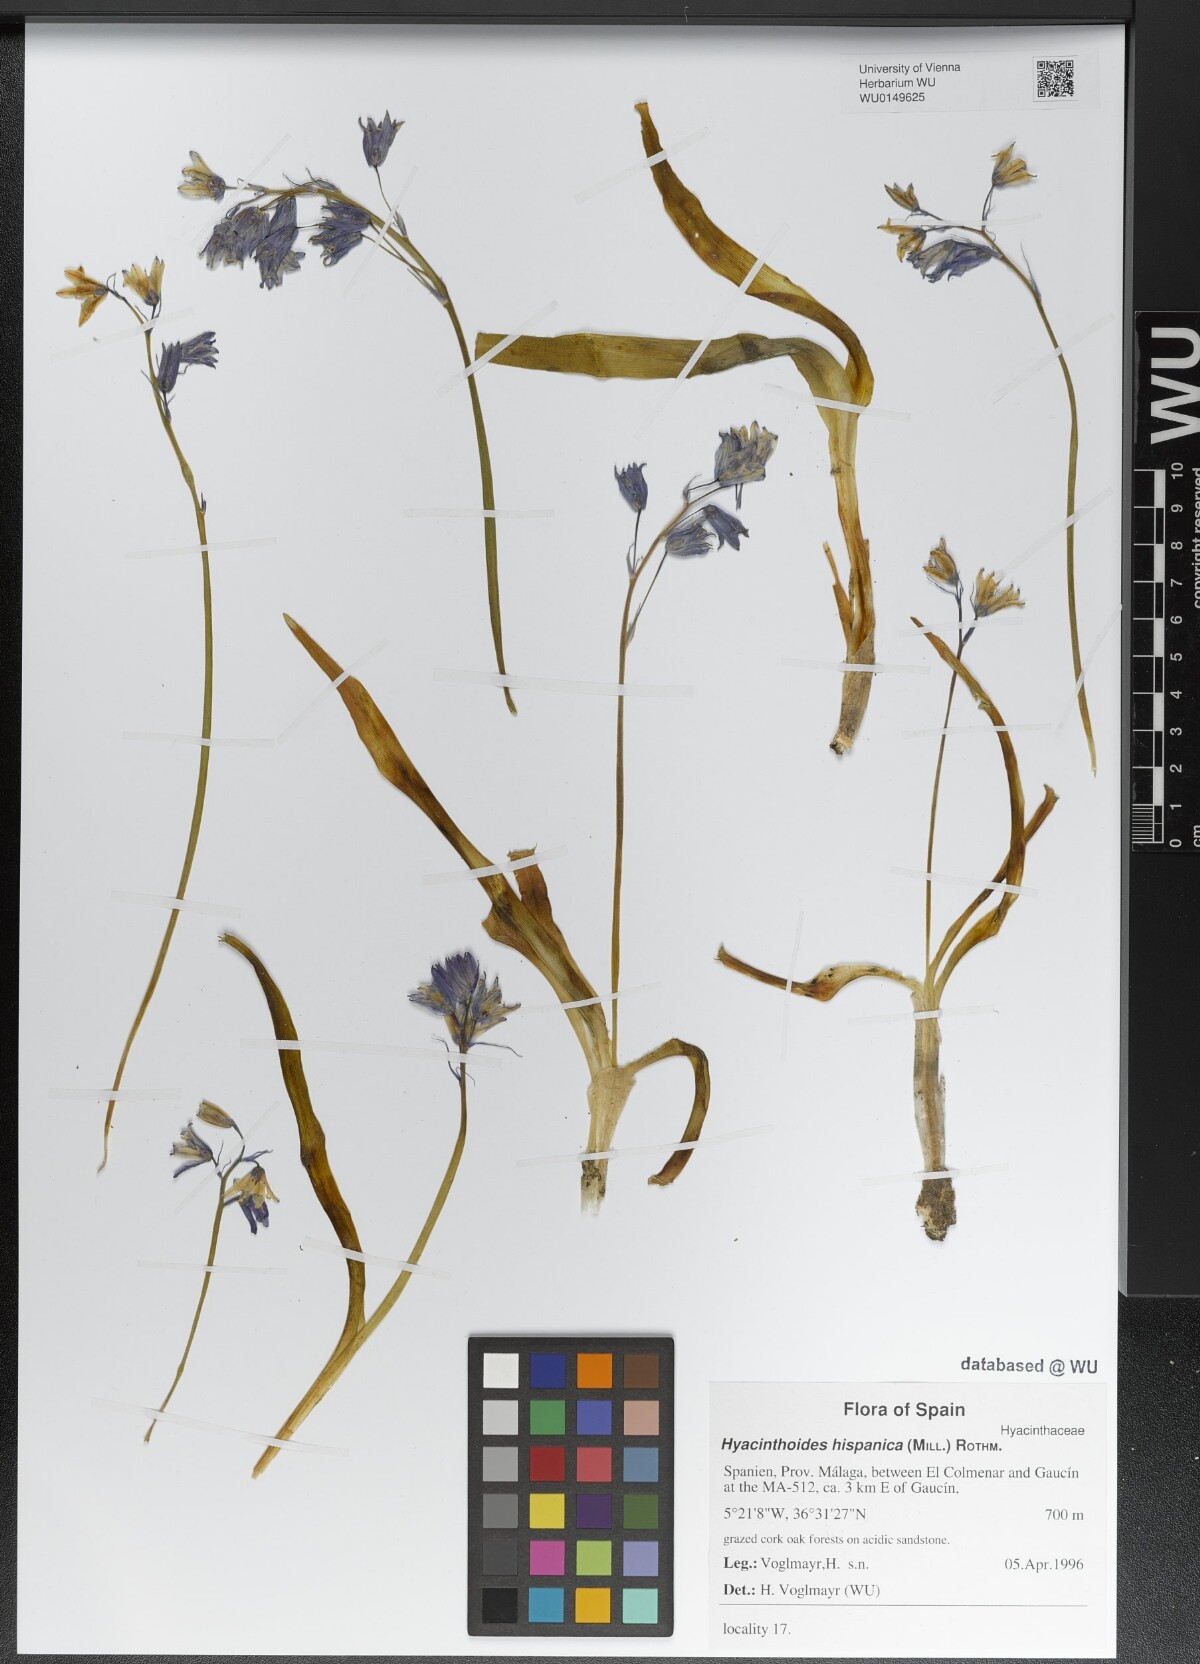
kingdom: Plantae
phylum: Tracheophyta
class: Liliopsida
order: Asparagales
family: Asparagaceae
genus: Hyacinthoides
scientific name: Hyacinthoides hispanica
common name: Spanish bluebell
